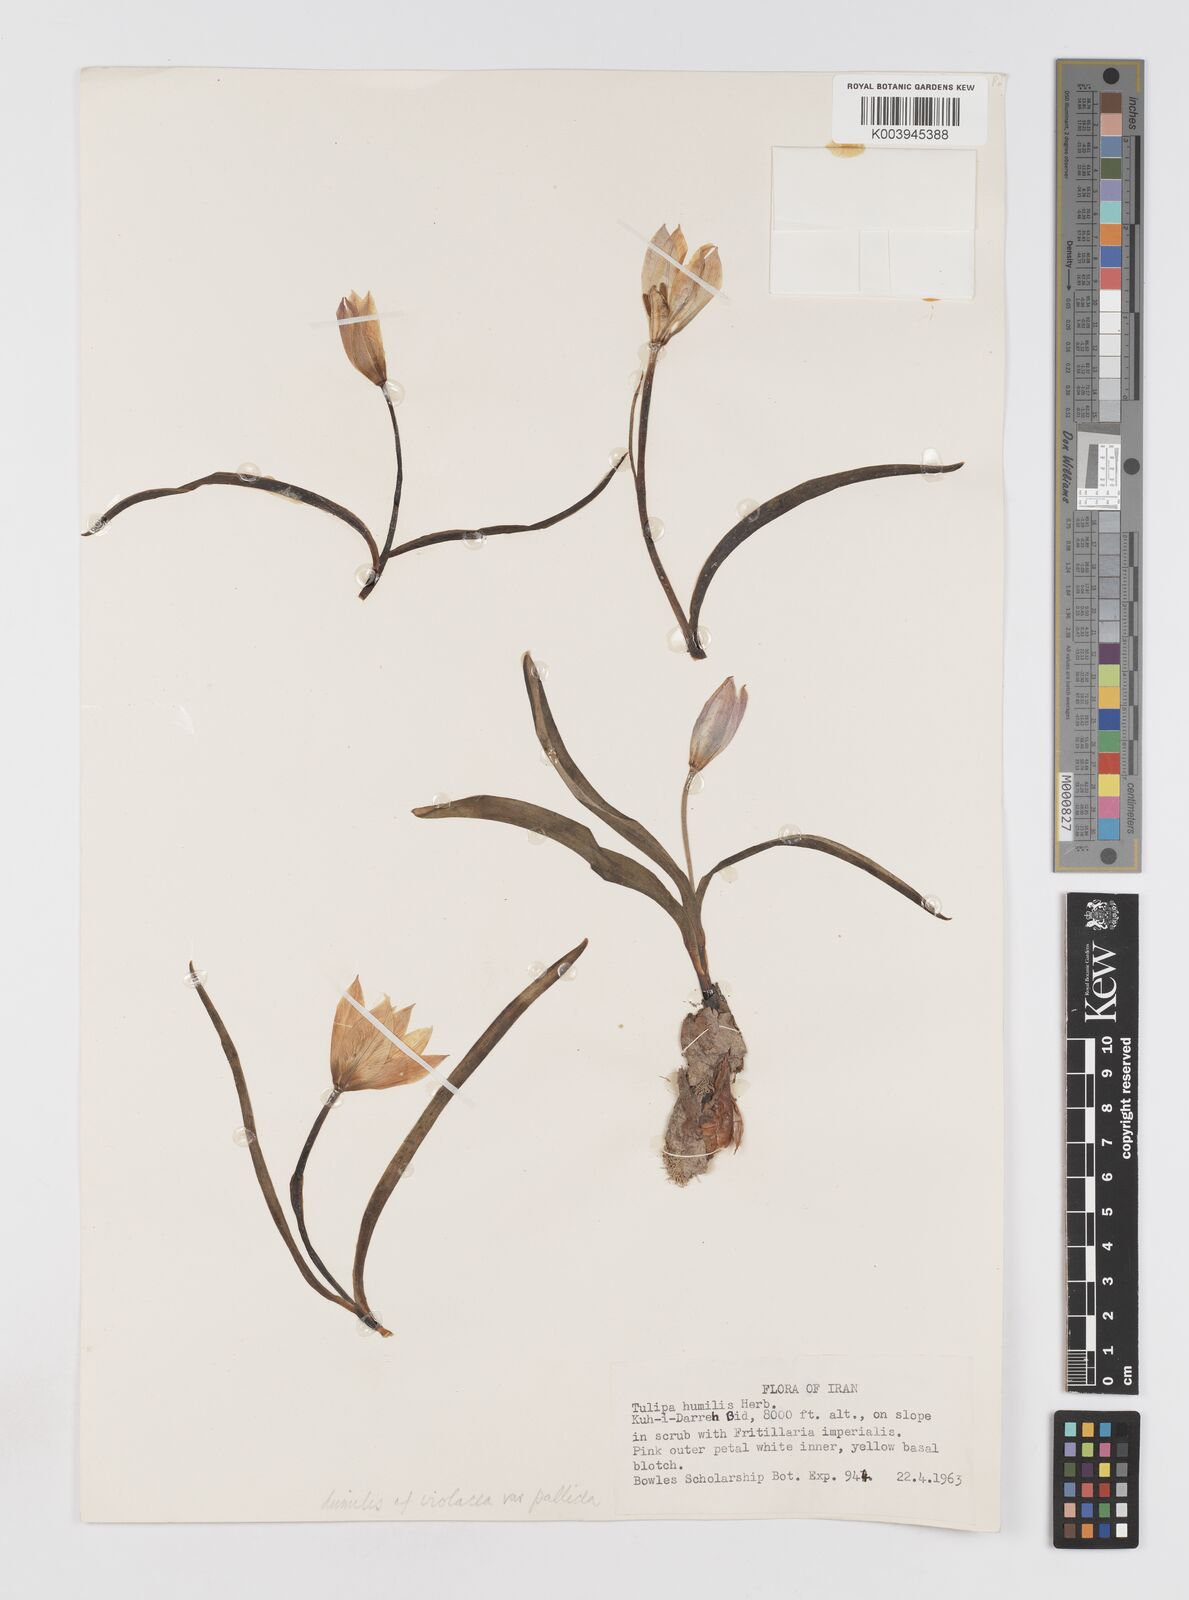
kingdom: Plantae
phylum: Tracheophyta
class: Liliopsida
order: Liliales
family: Liliaceae
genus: Tulipa
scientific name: Tulipa humilis
